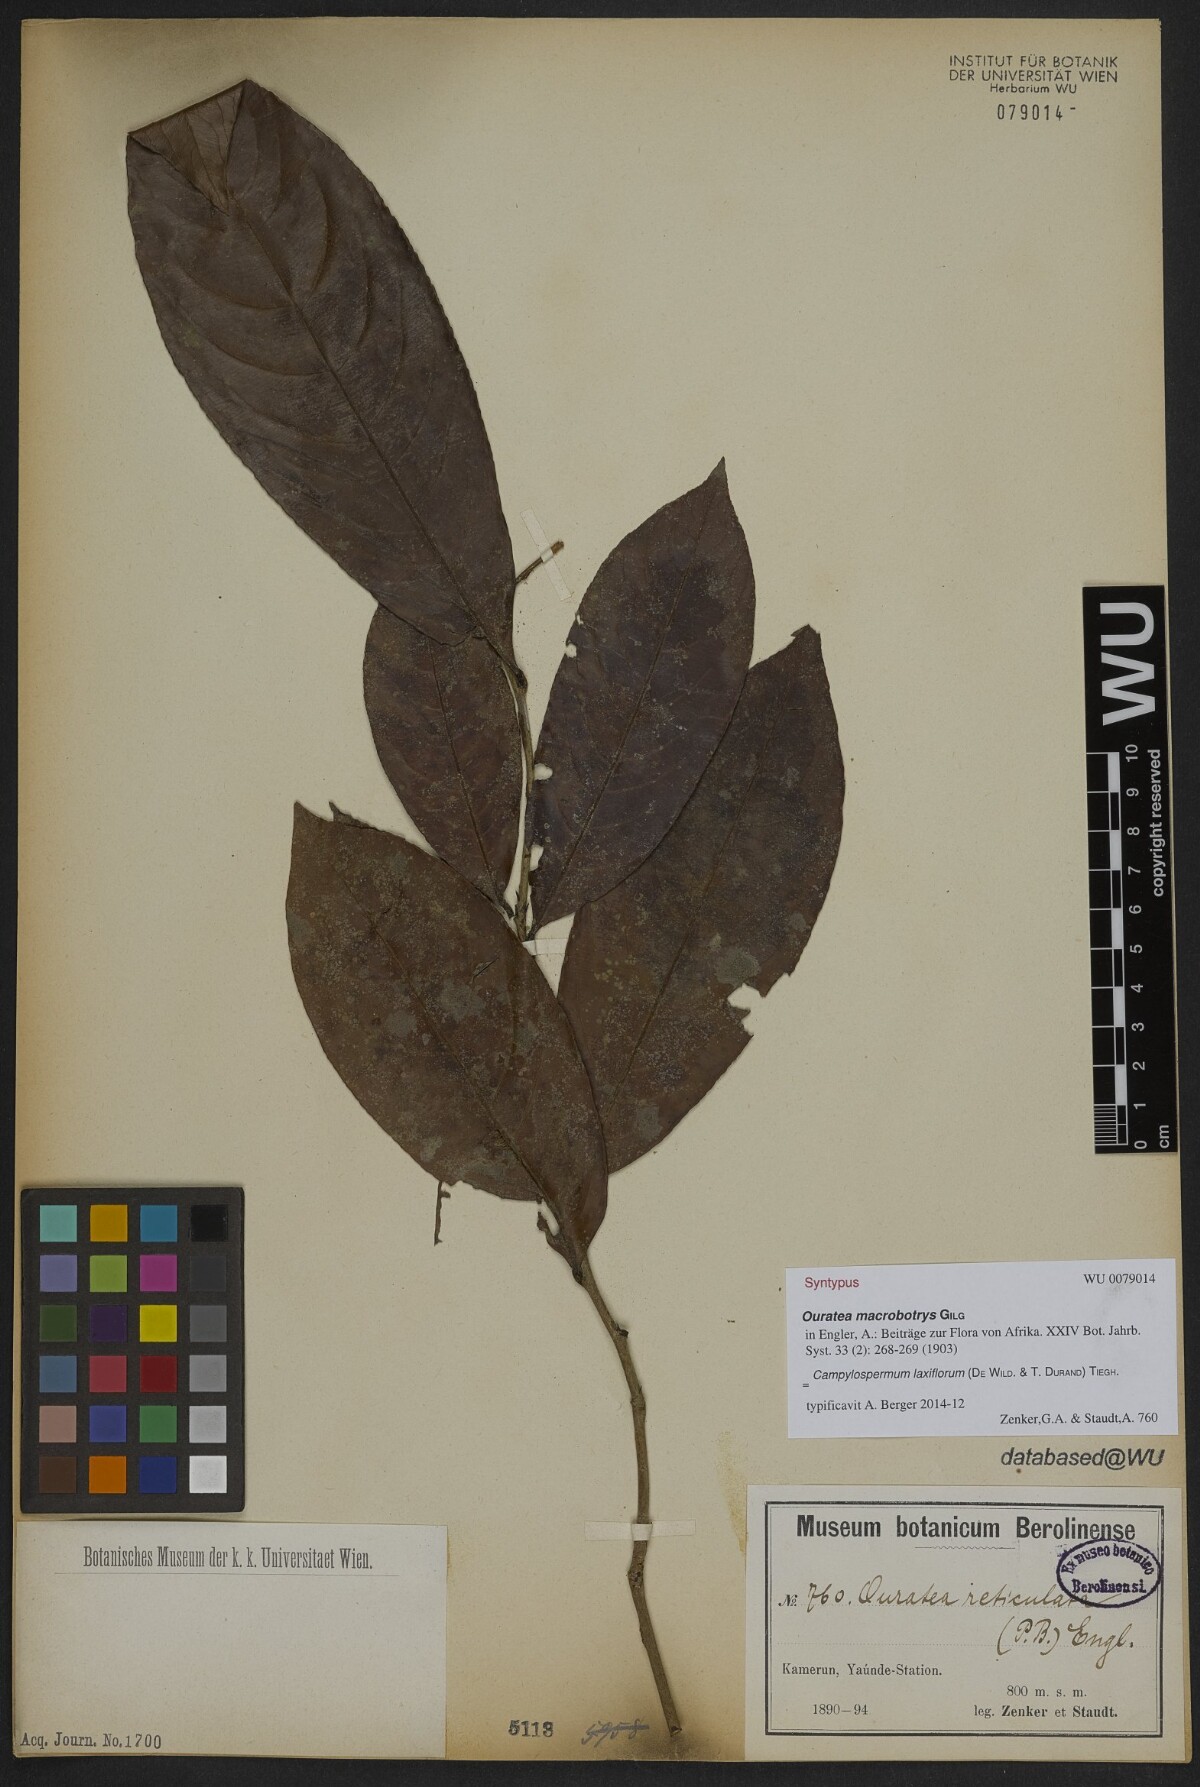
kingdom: Plantae
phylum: Tracheophyta
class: Magnoliopsida
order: Malpighiales
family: Ochnaceae
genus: Campylospermum
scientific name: Campylospermum laxiflorum
